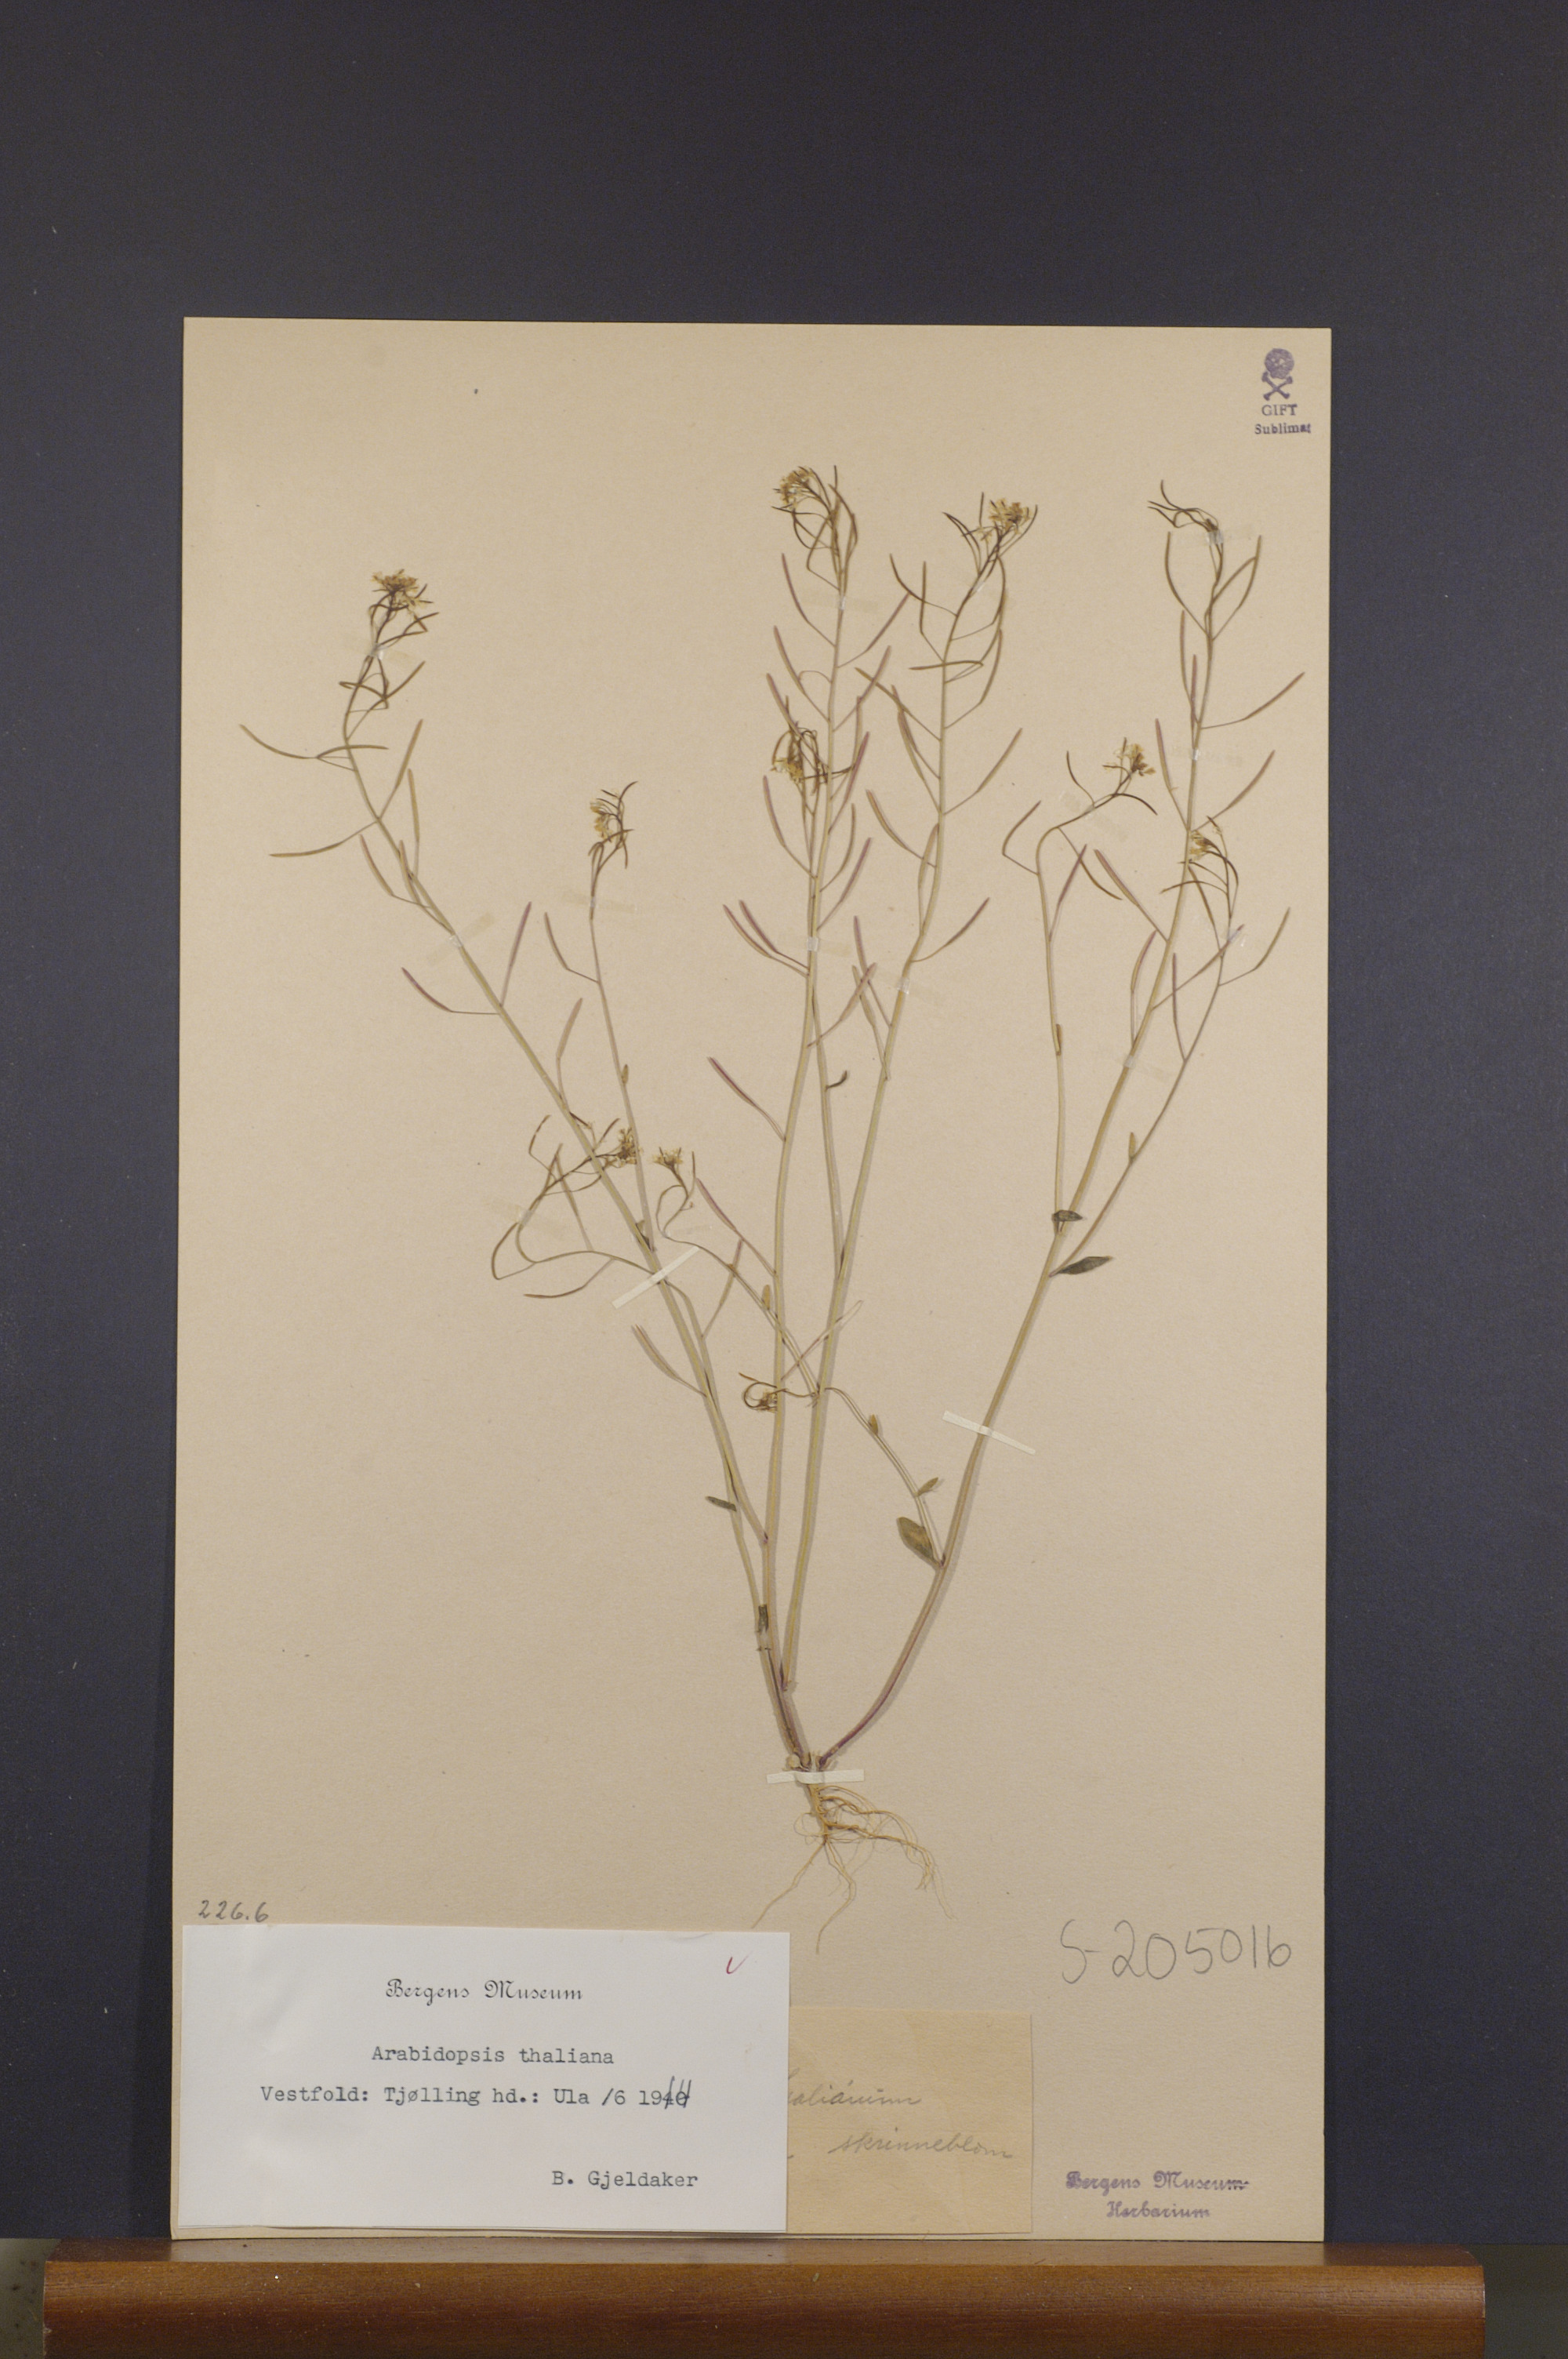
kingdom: Plantae
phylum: Tracheophyta
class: Magnoliopsida
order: Brassicales
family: Brassicaceae
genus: Arabidopsis
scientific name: Arabidopsis thaliana
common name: Thale cress
